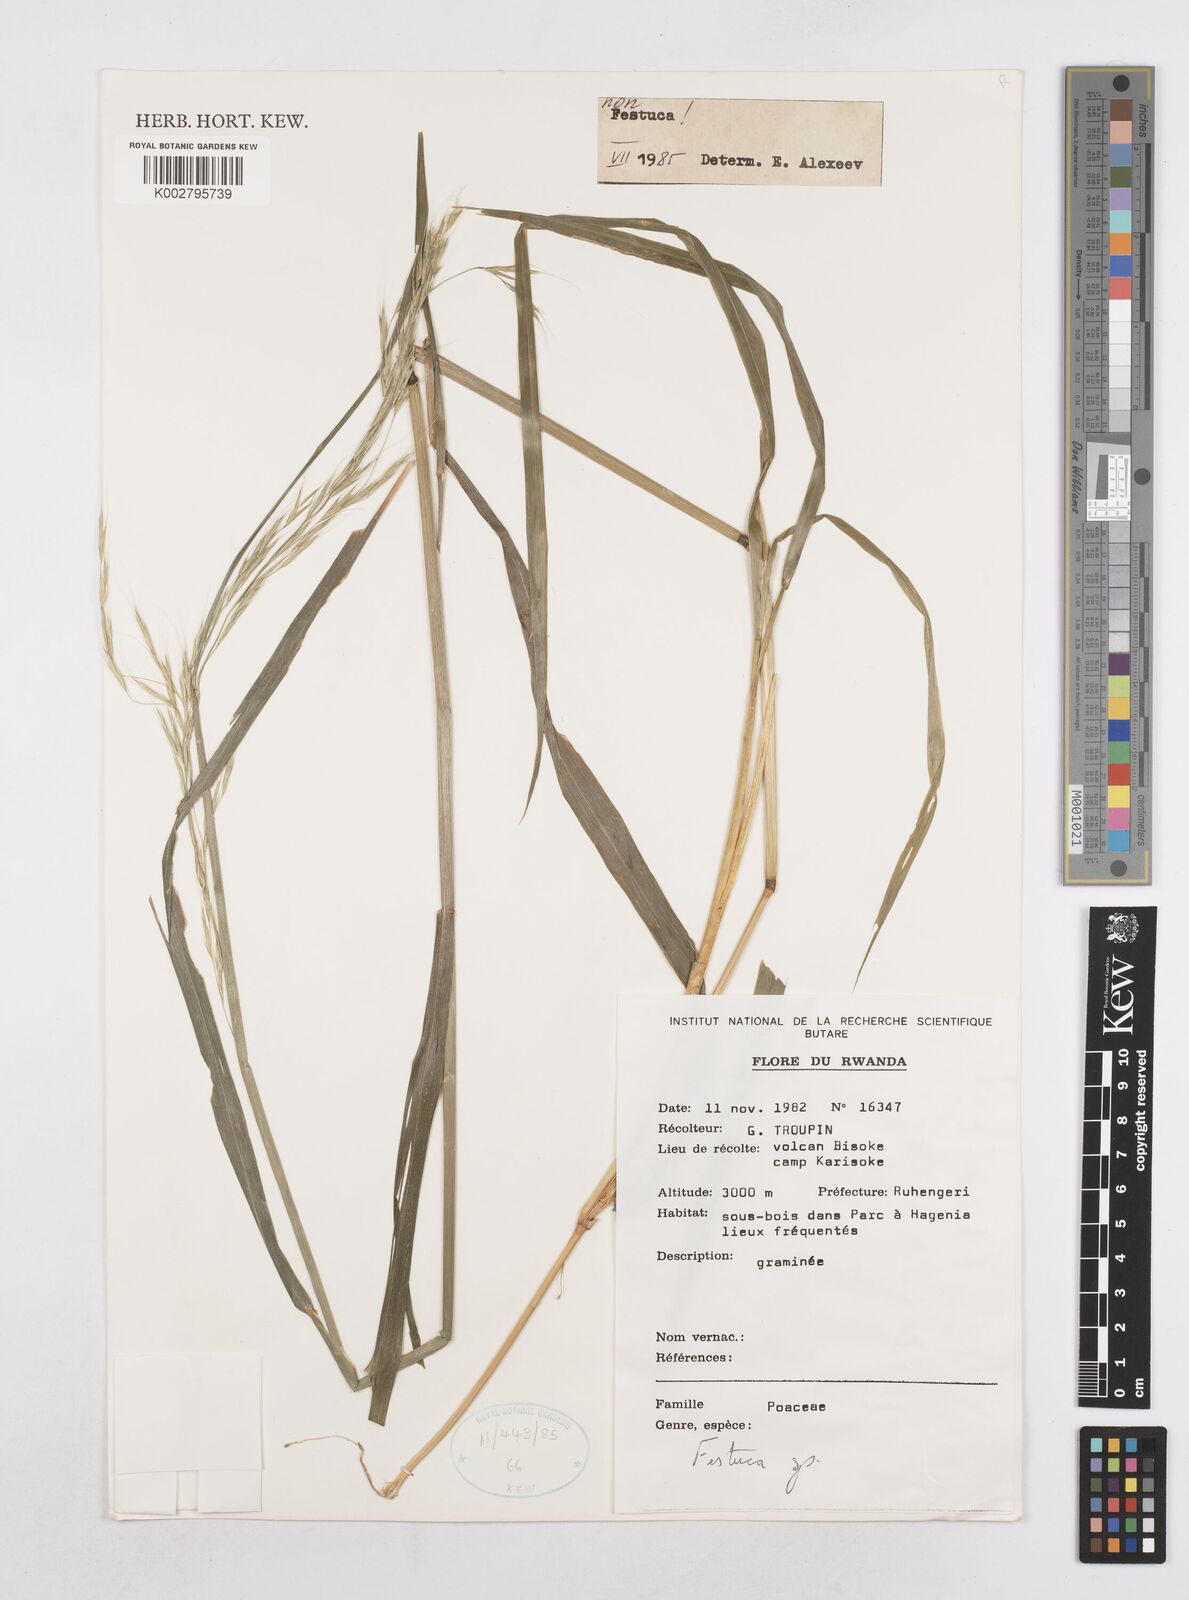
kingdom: Plantae
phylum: Tracheophyta
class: Liliopsida
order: Poales
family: Poaceae
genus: Trisetopsis
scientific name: Trisetopsis milanjiana
